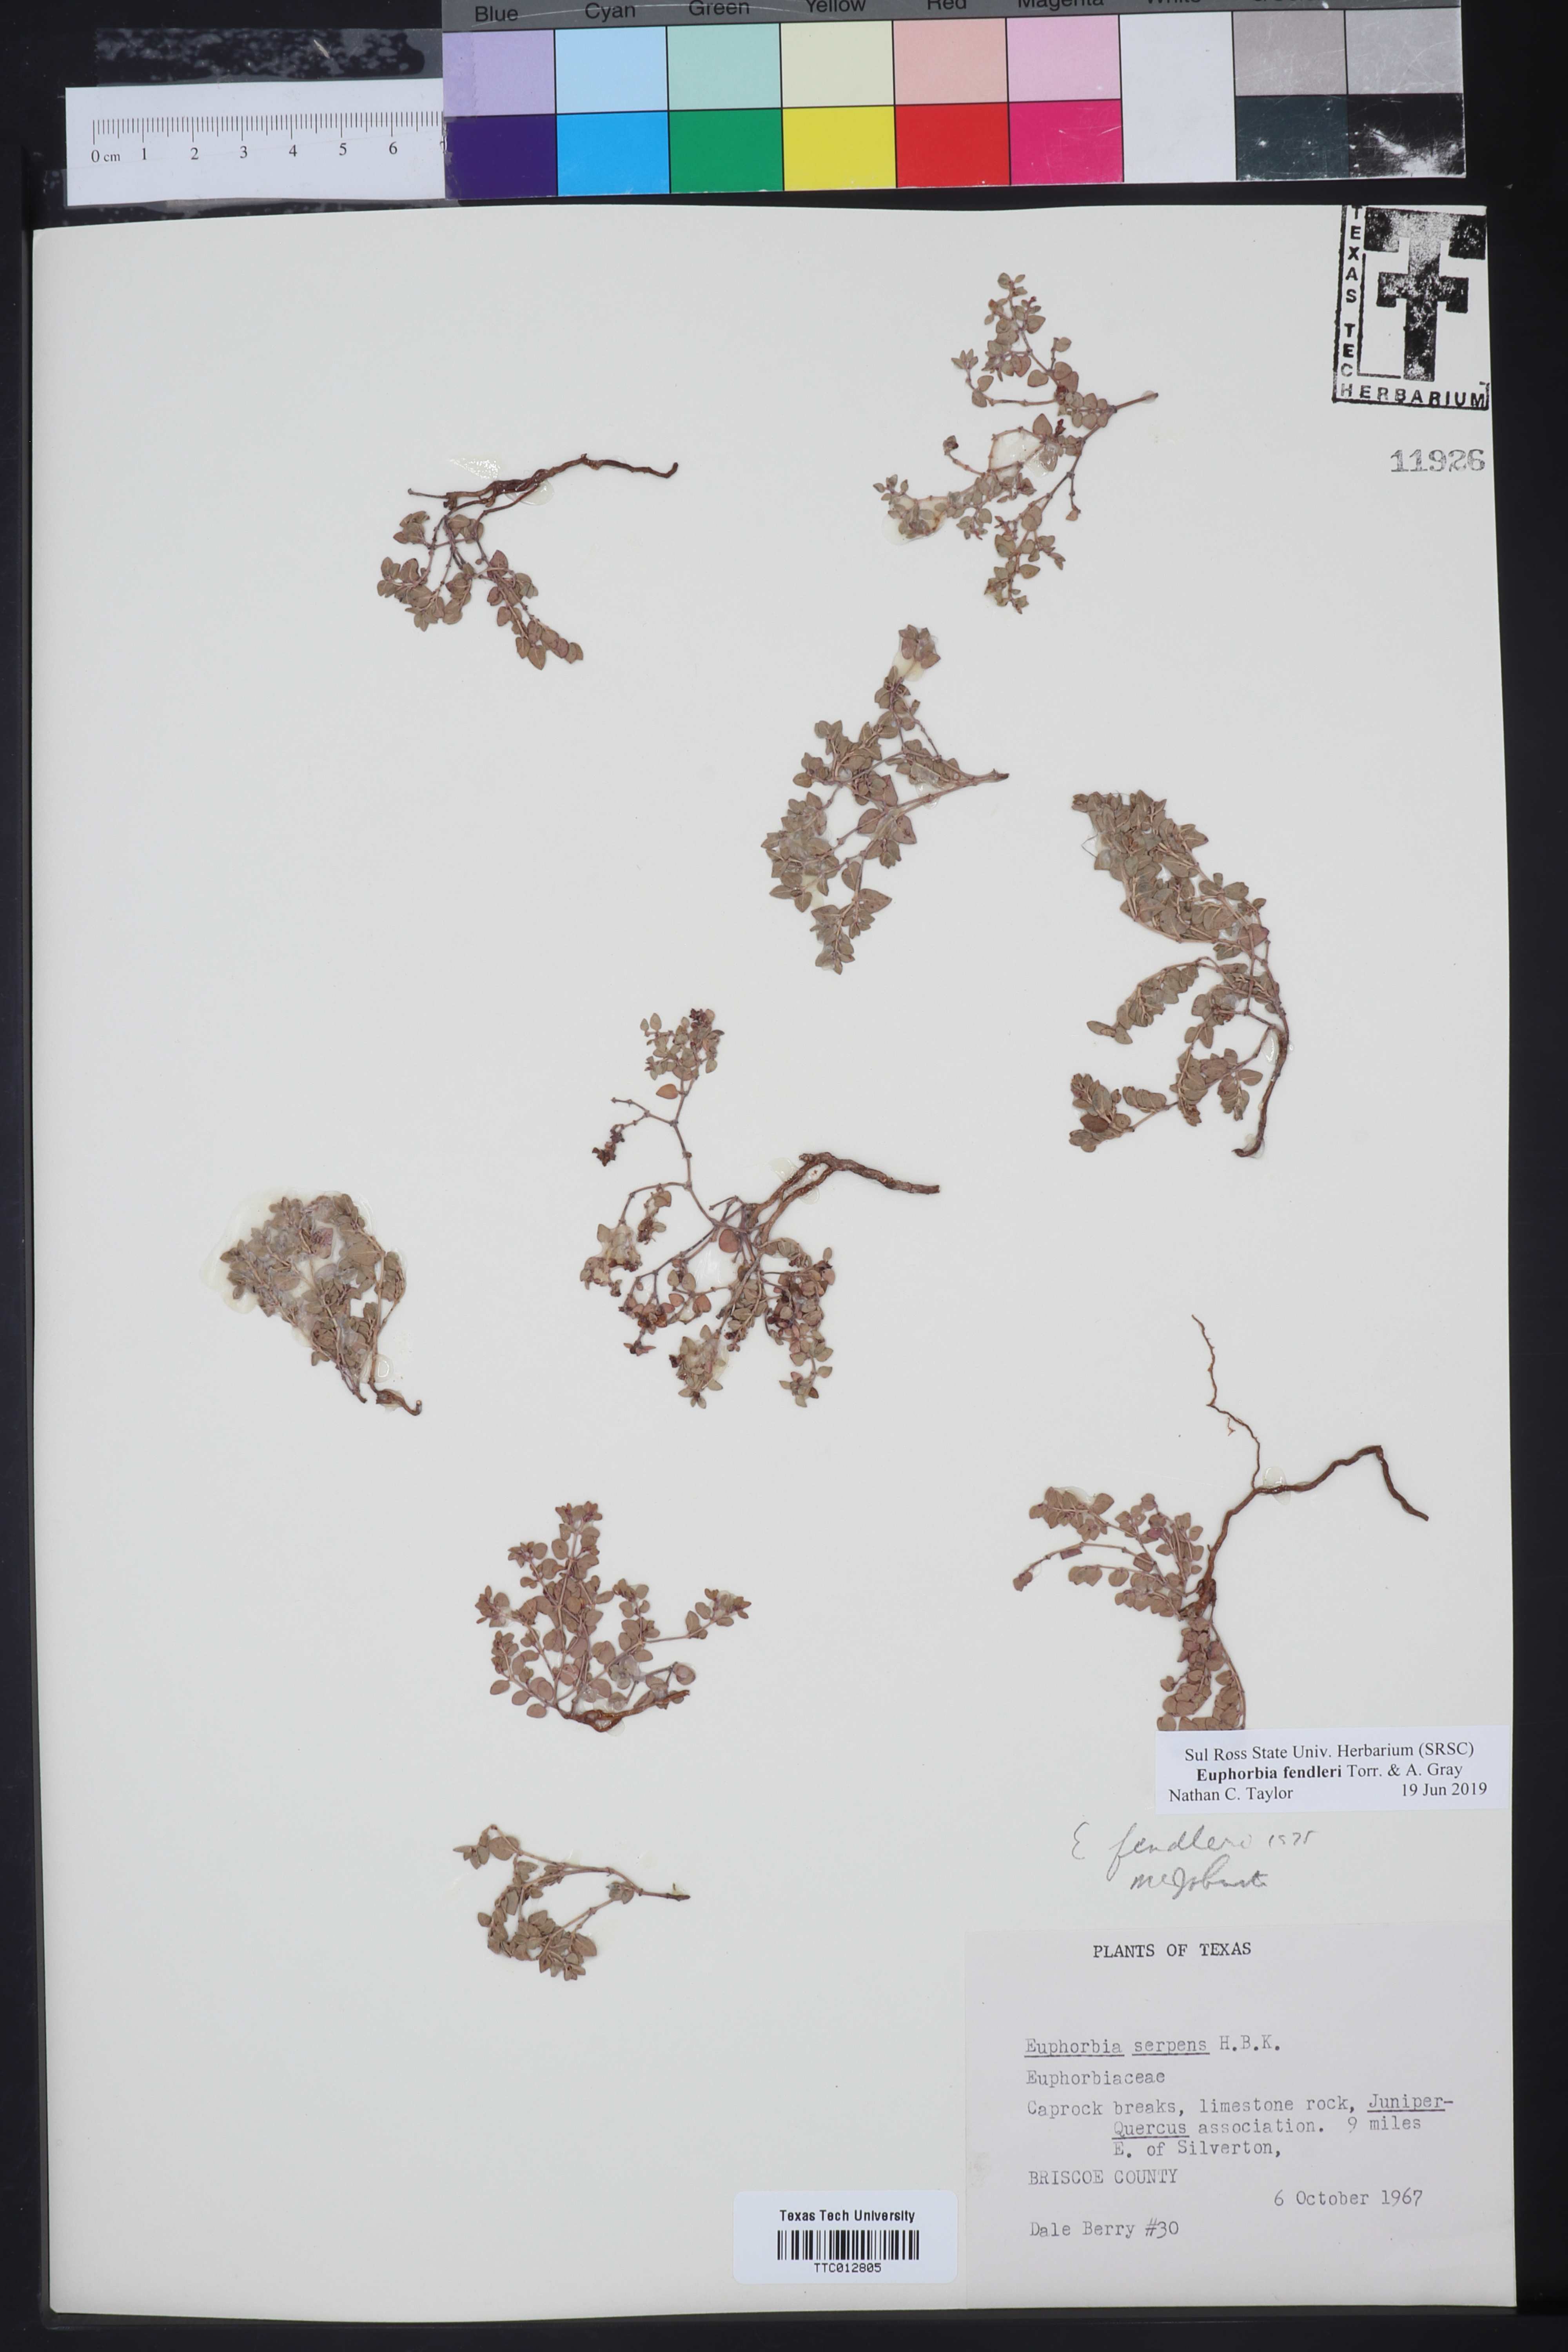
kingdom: Plantae
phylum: Tracheophyta
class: Magnoliopsida
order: Malpighiales
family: Euphorbiaceae
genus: Euphorbia
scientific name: Euphorbia fendleri
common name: Fendler's euphorbia
